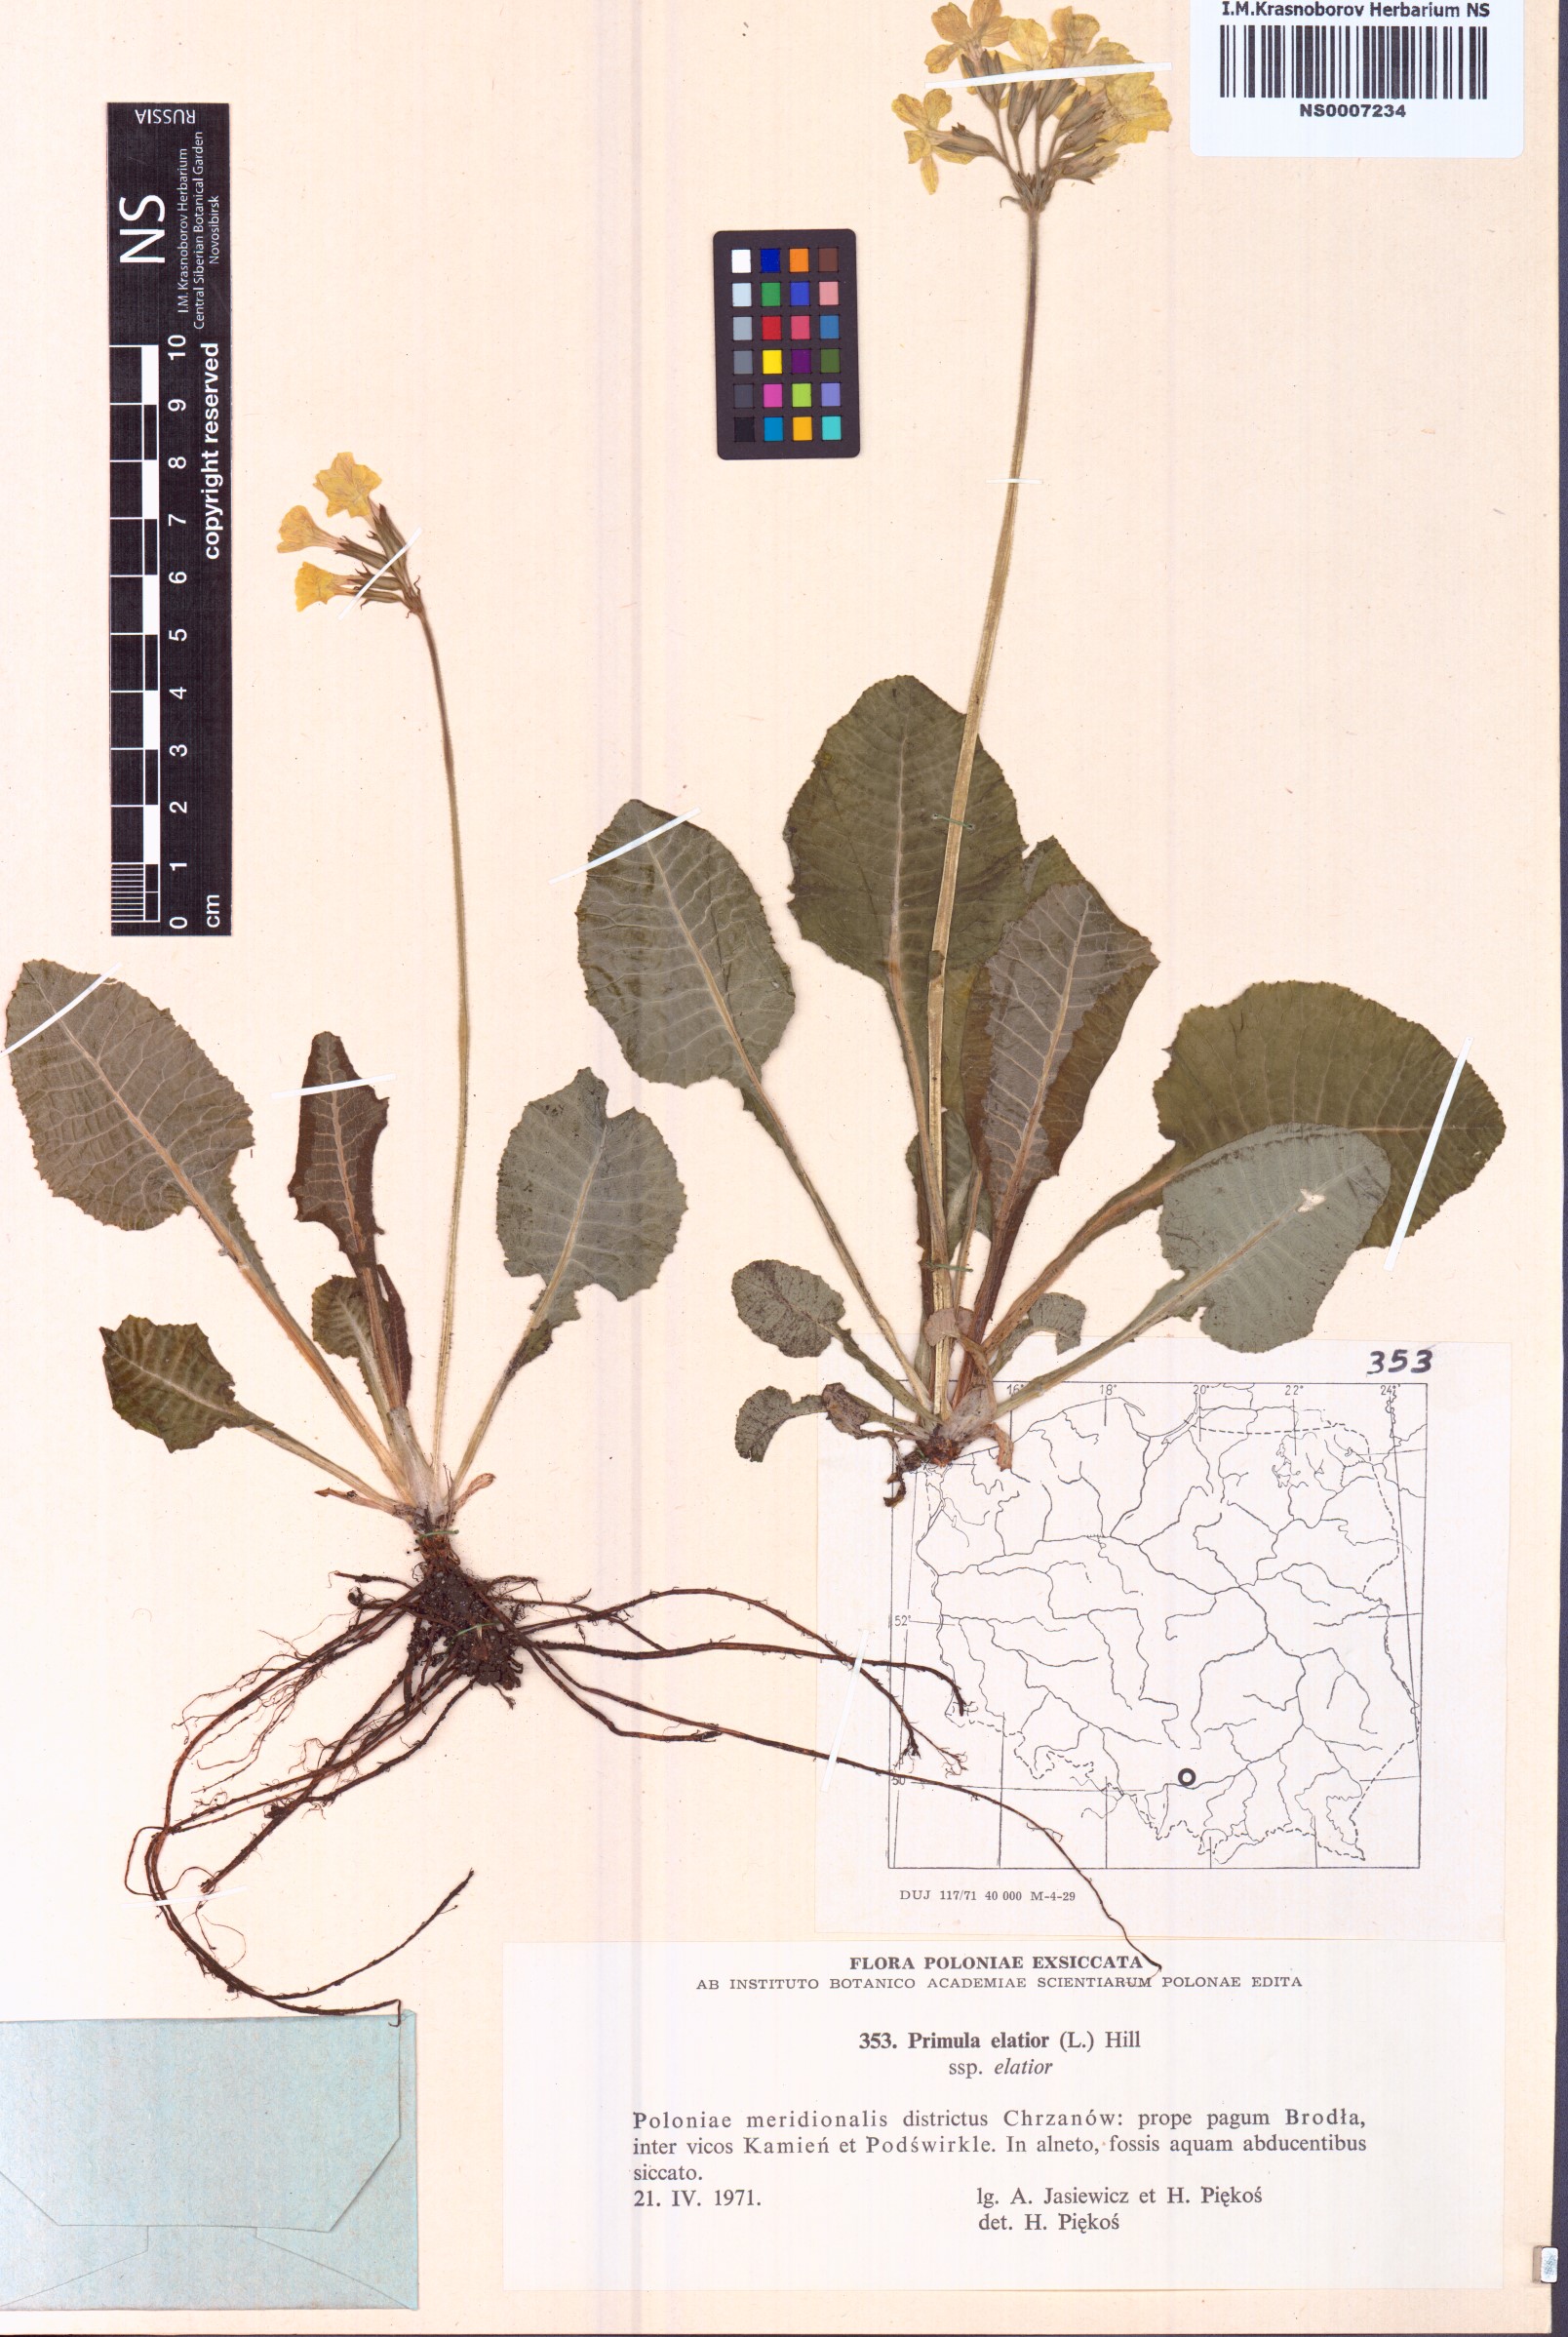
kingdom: Plantae
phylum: Tracheophyta
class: Magnoliopsida
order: Ericales
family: Primulaceae
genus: Primula
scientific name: Primula elatior
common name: Oxlip
